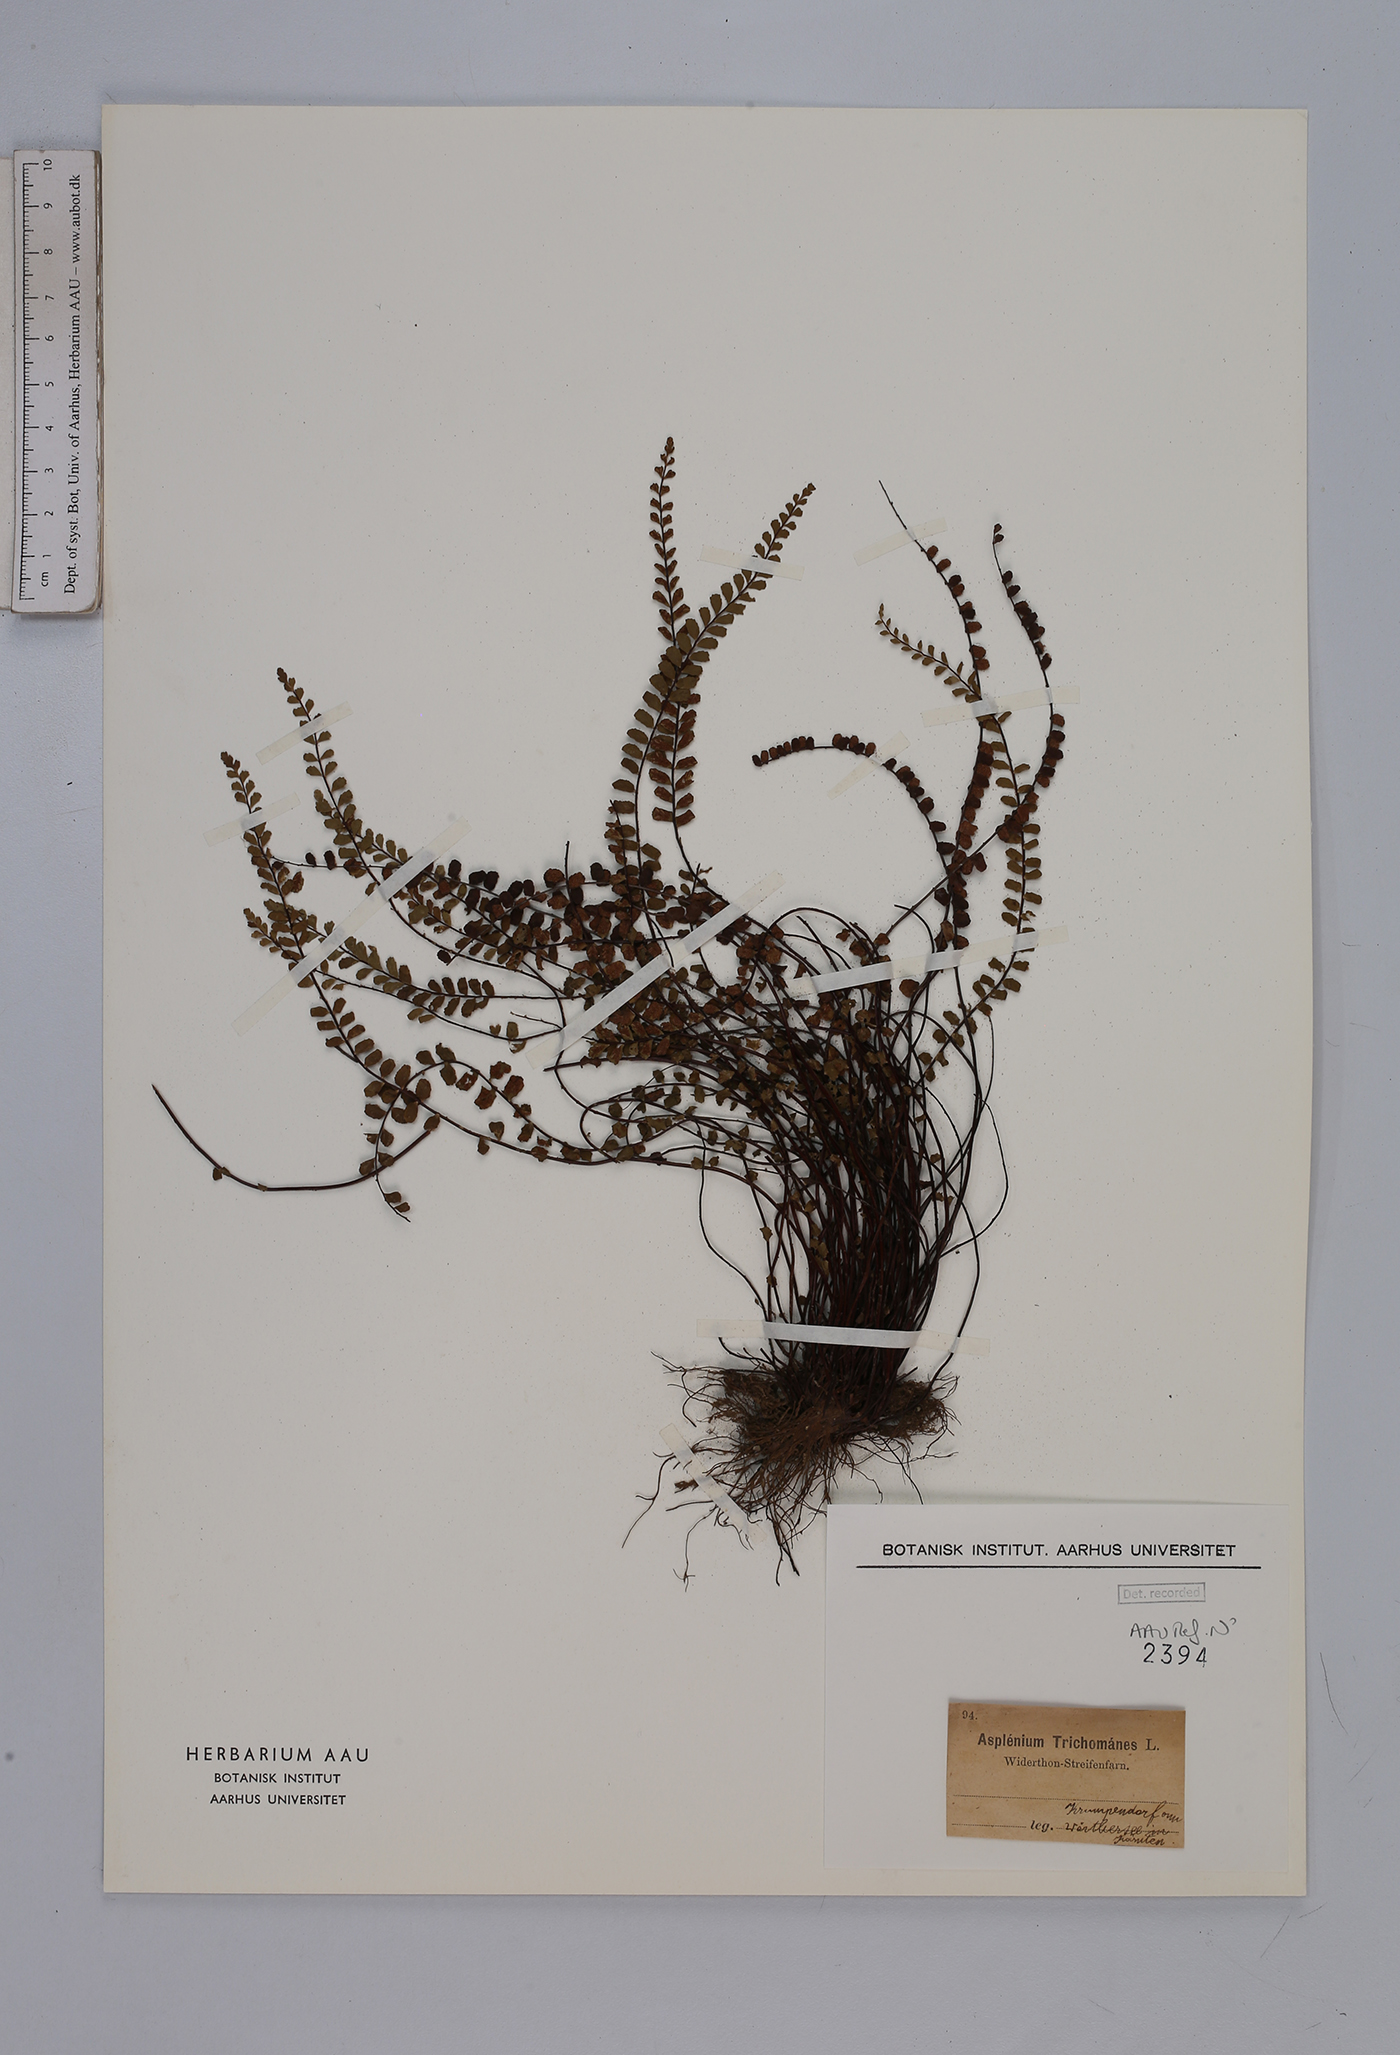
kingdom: Plantae
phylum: Tracheophyta
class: Polypodiopsida
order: Polypodiales
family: Aspleniaceae
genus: Asplenium
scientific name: Asplenium trichomanes
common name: Maidenhair spleenwort
